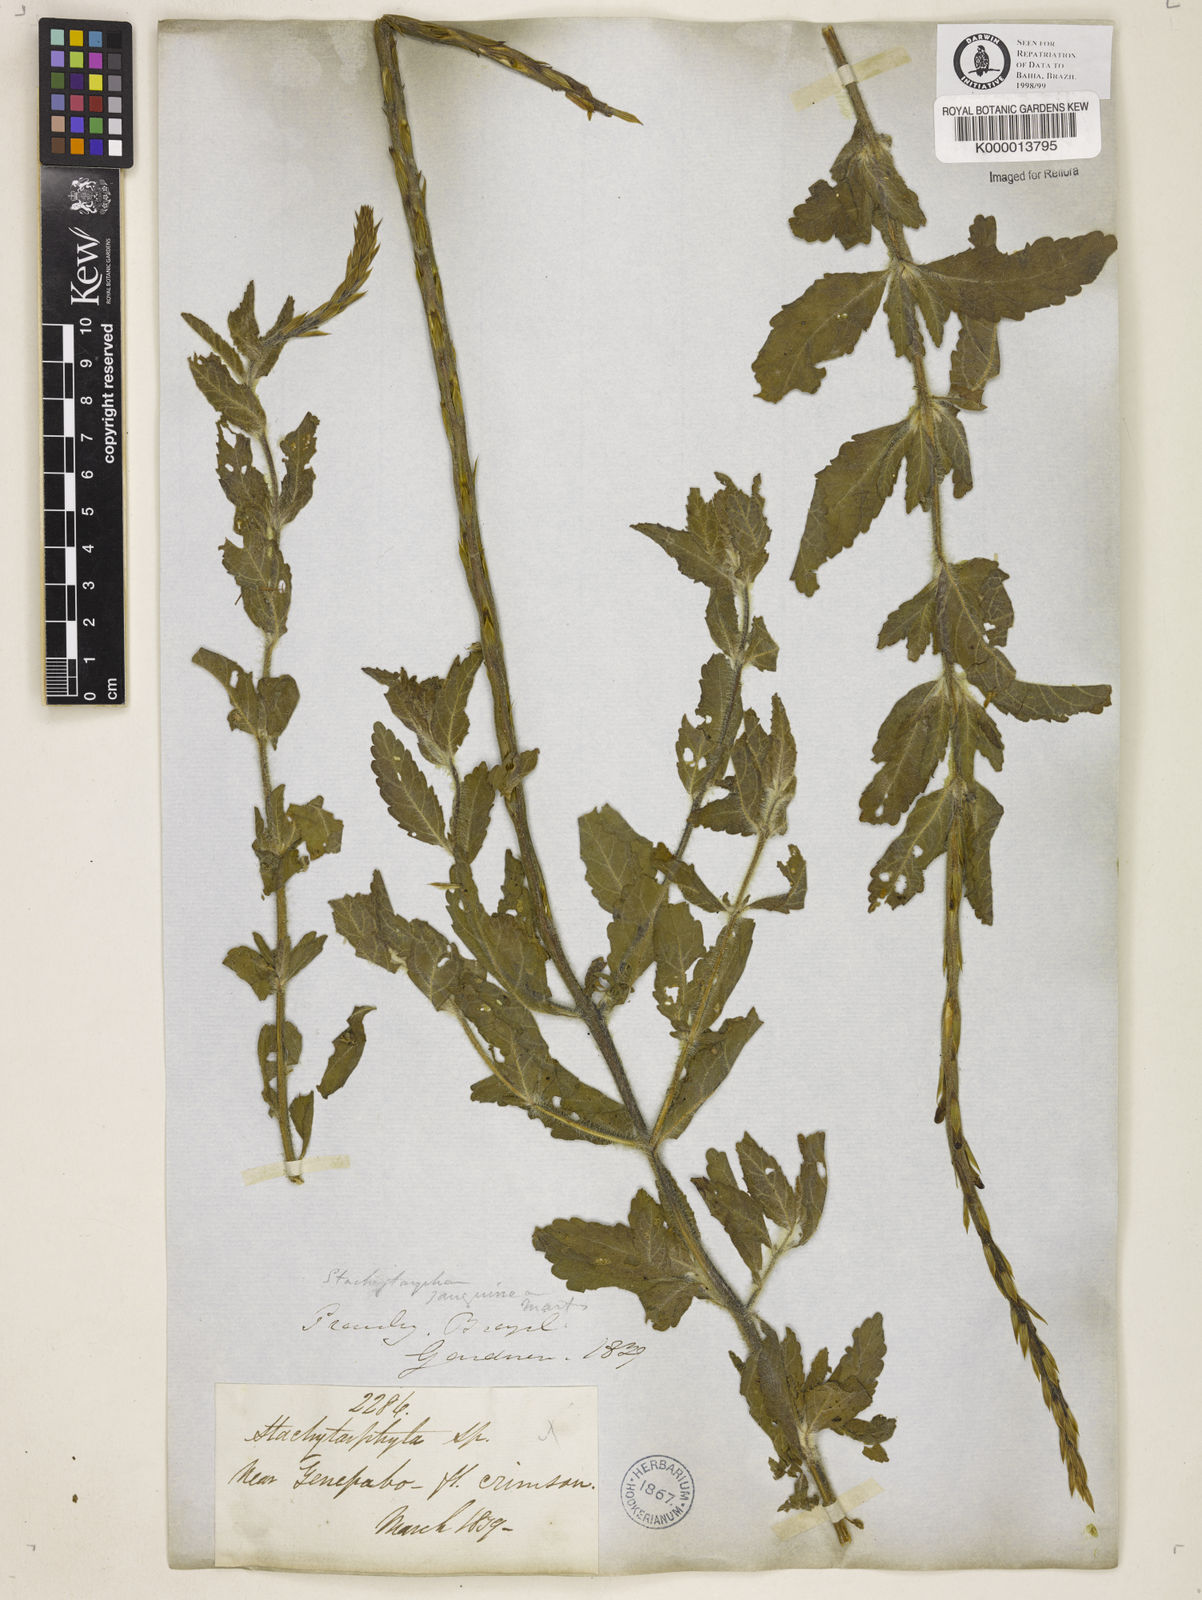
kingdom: Plantae
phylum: Tracheophyta
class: Magnoliopsida
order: Lamiales
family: Verbenaceae
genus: Stachytarpheta
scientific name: Stachytarpheta
